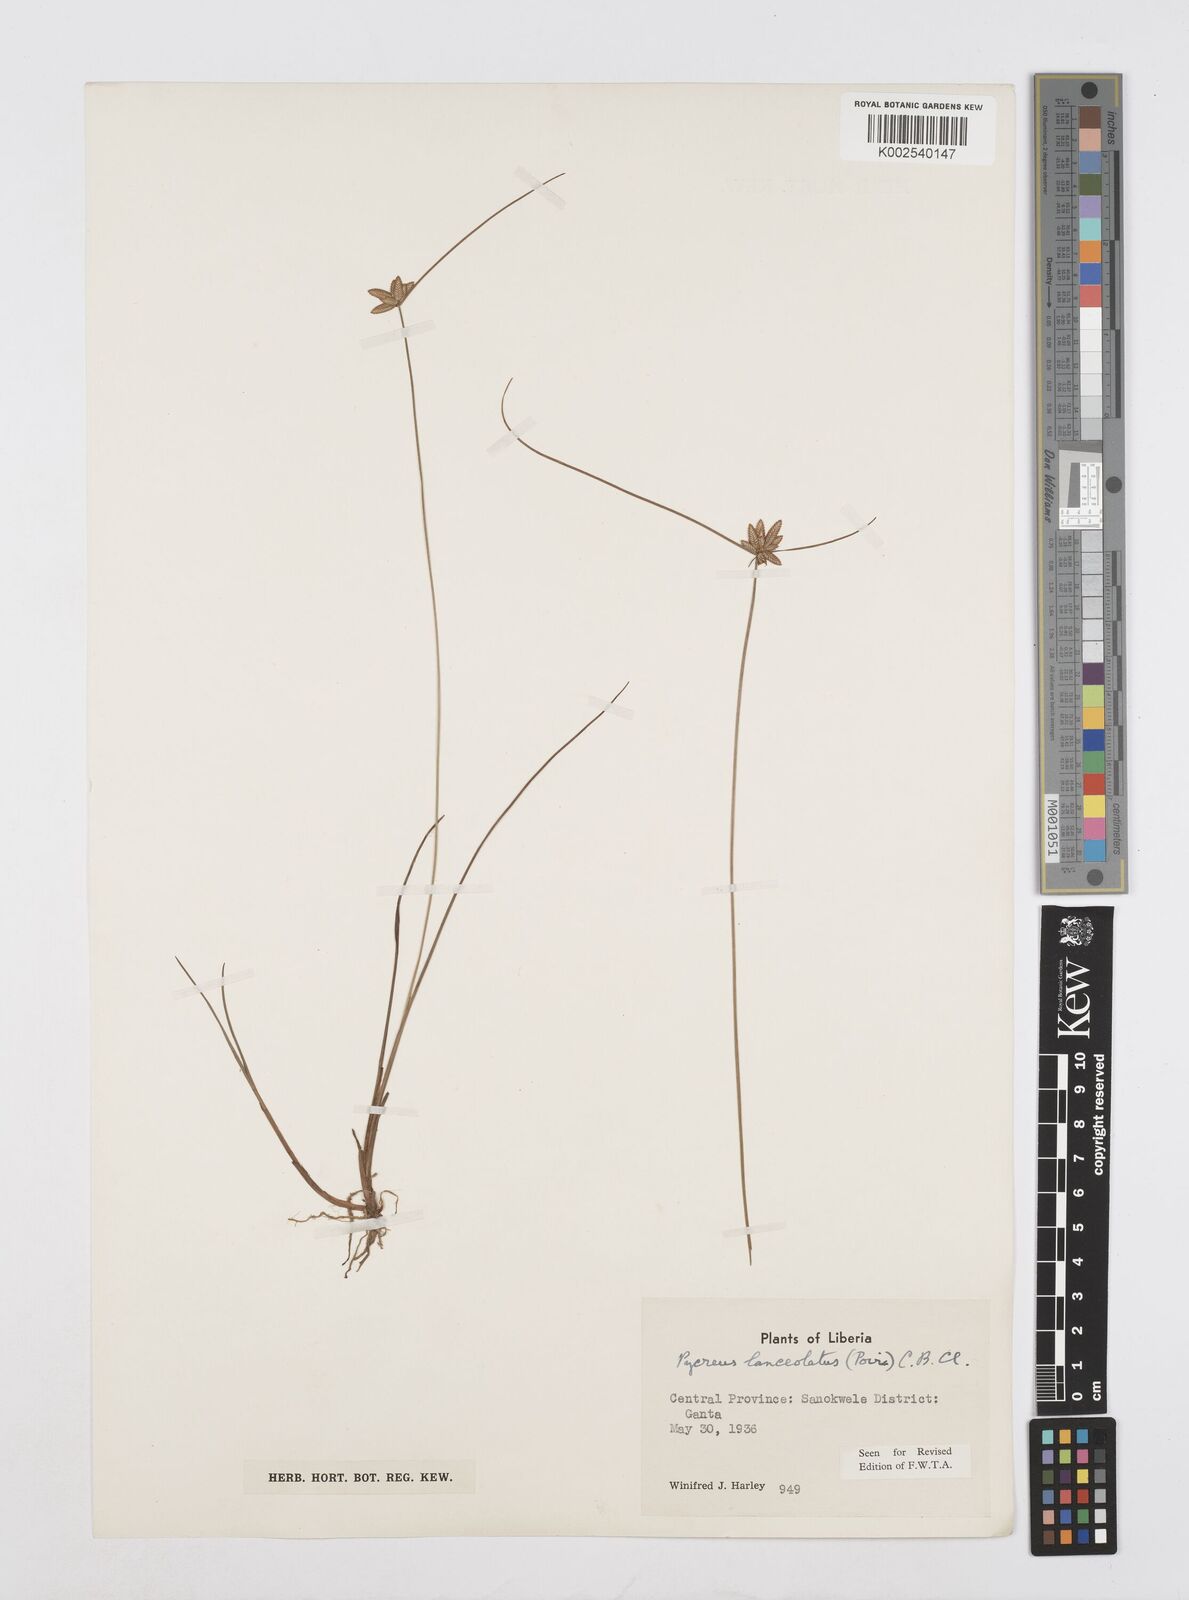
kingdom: Plantae
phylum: Tracheophyta
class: Liliopsida
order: Poales
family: Cyperaceae
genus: Cyperus
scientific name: Cyperus
